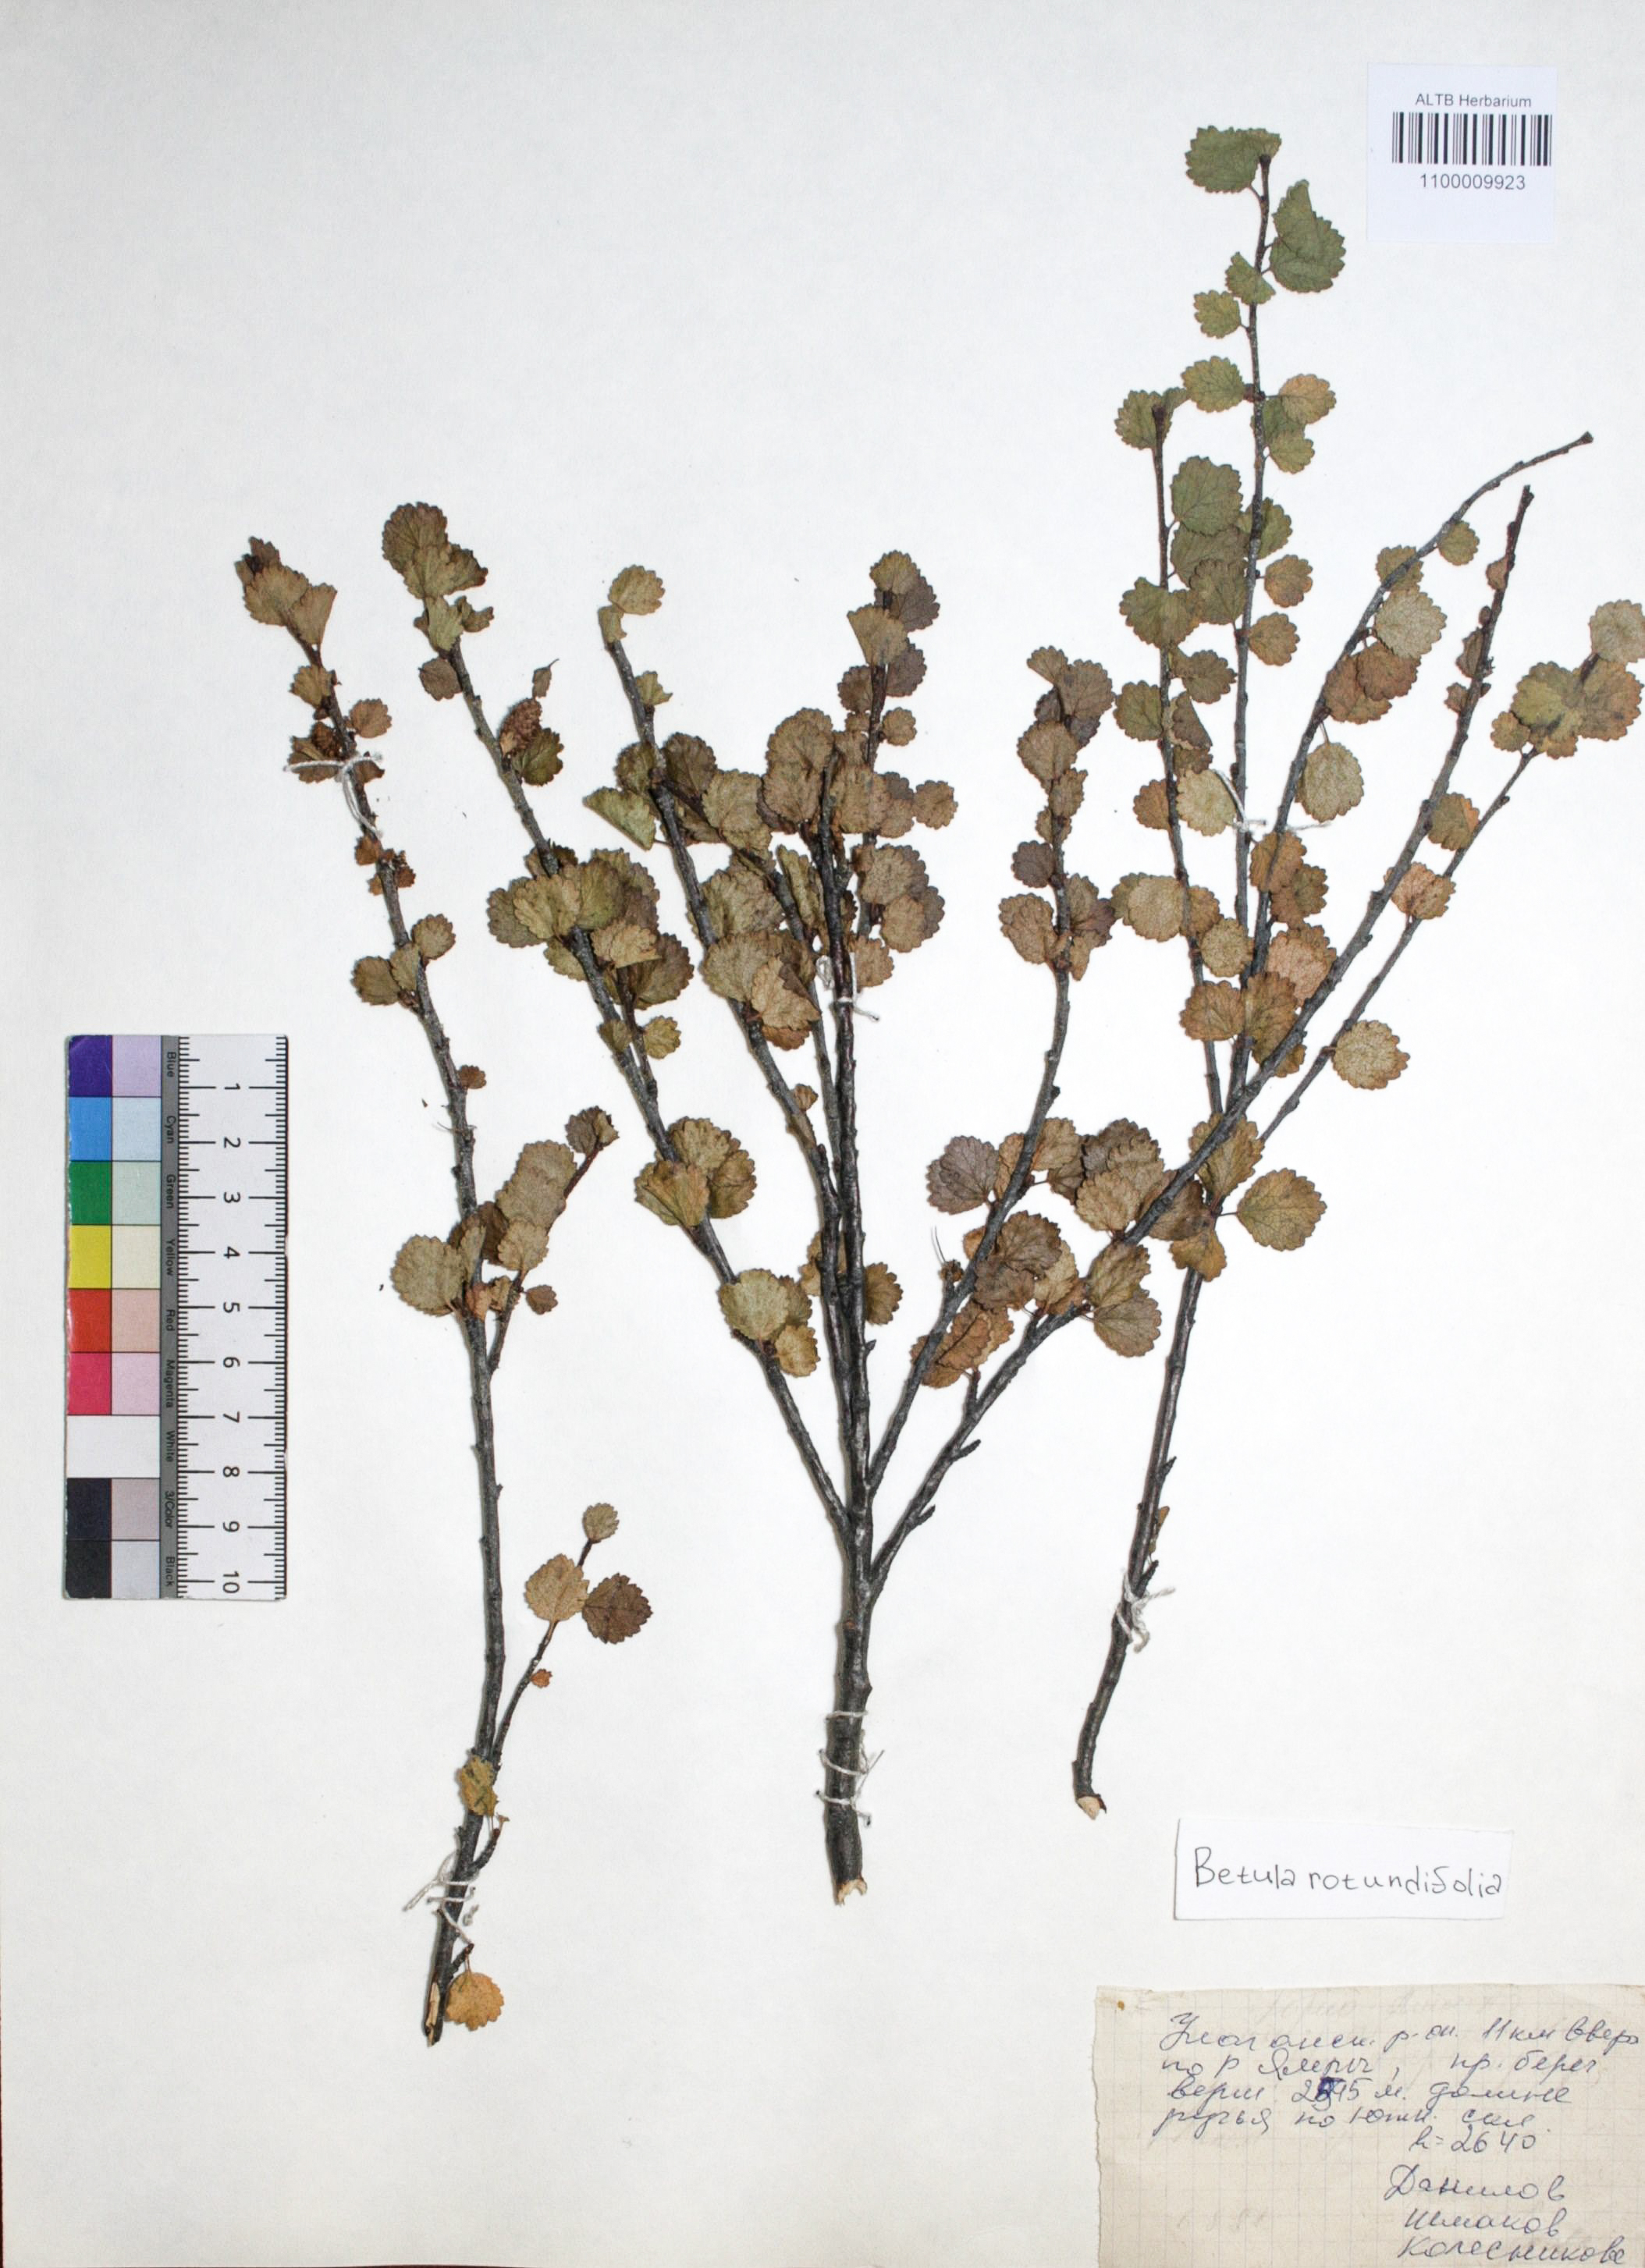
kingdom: Plantae
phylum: Tracheophyta
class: Magnoliopsida
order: Fagales
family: Betulaceae
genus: Betula
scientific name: Betula glandulosa
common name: Dwarf birch
